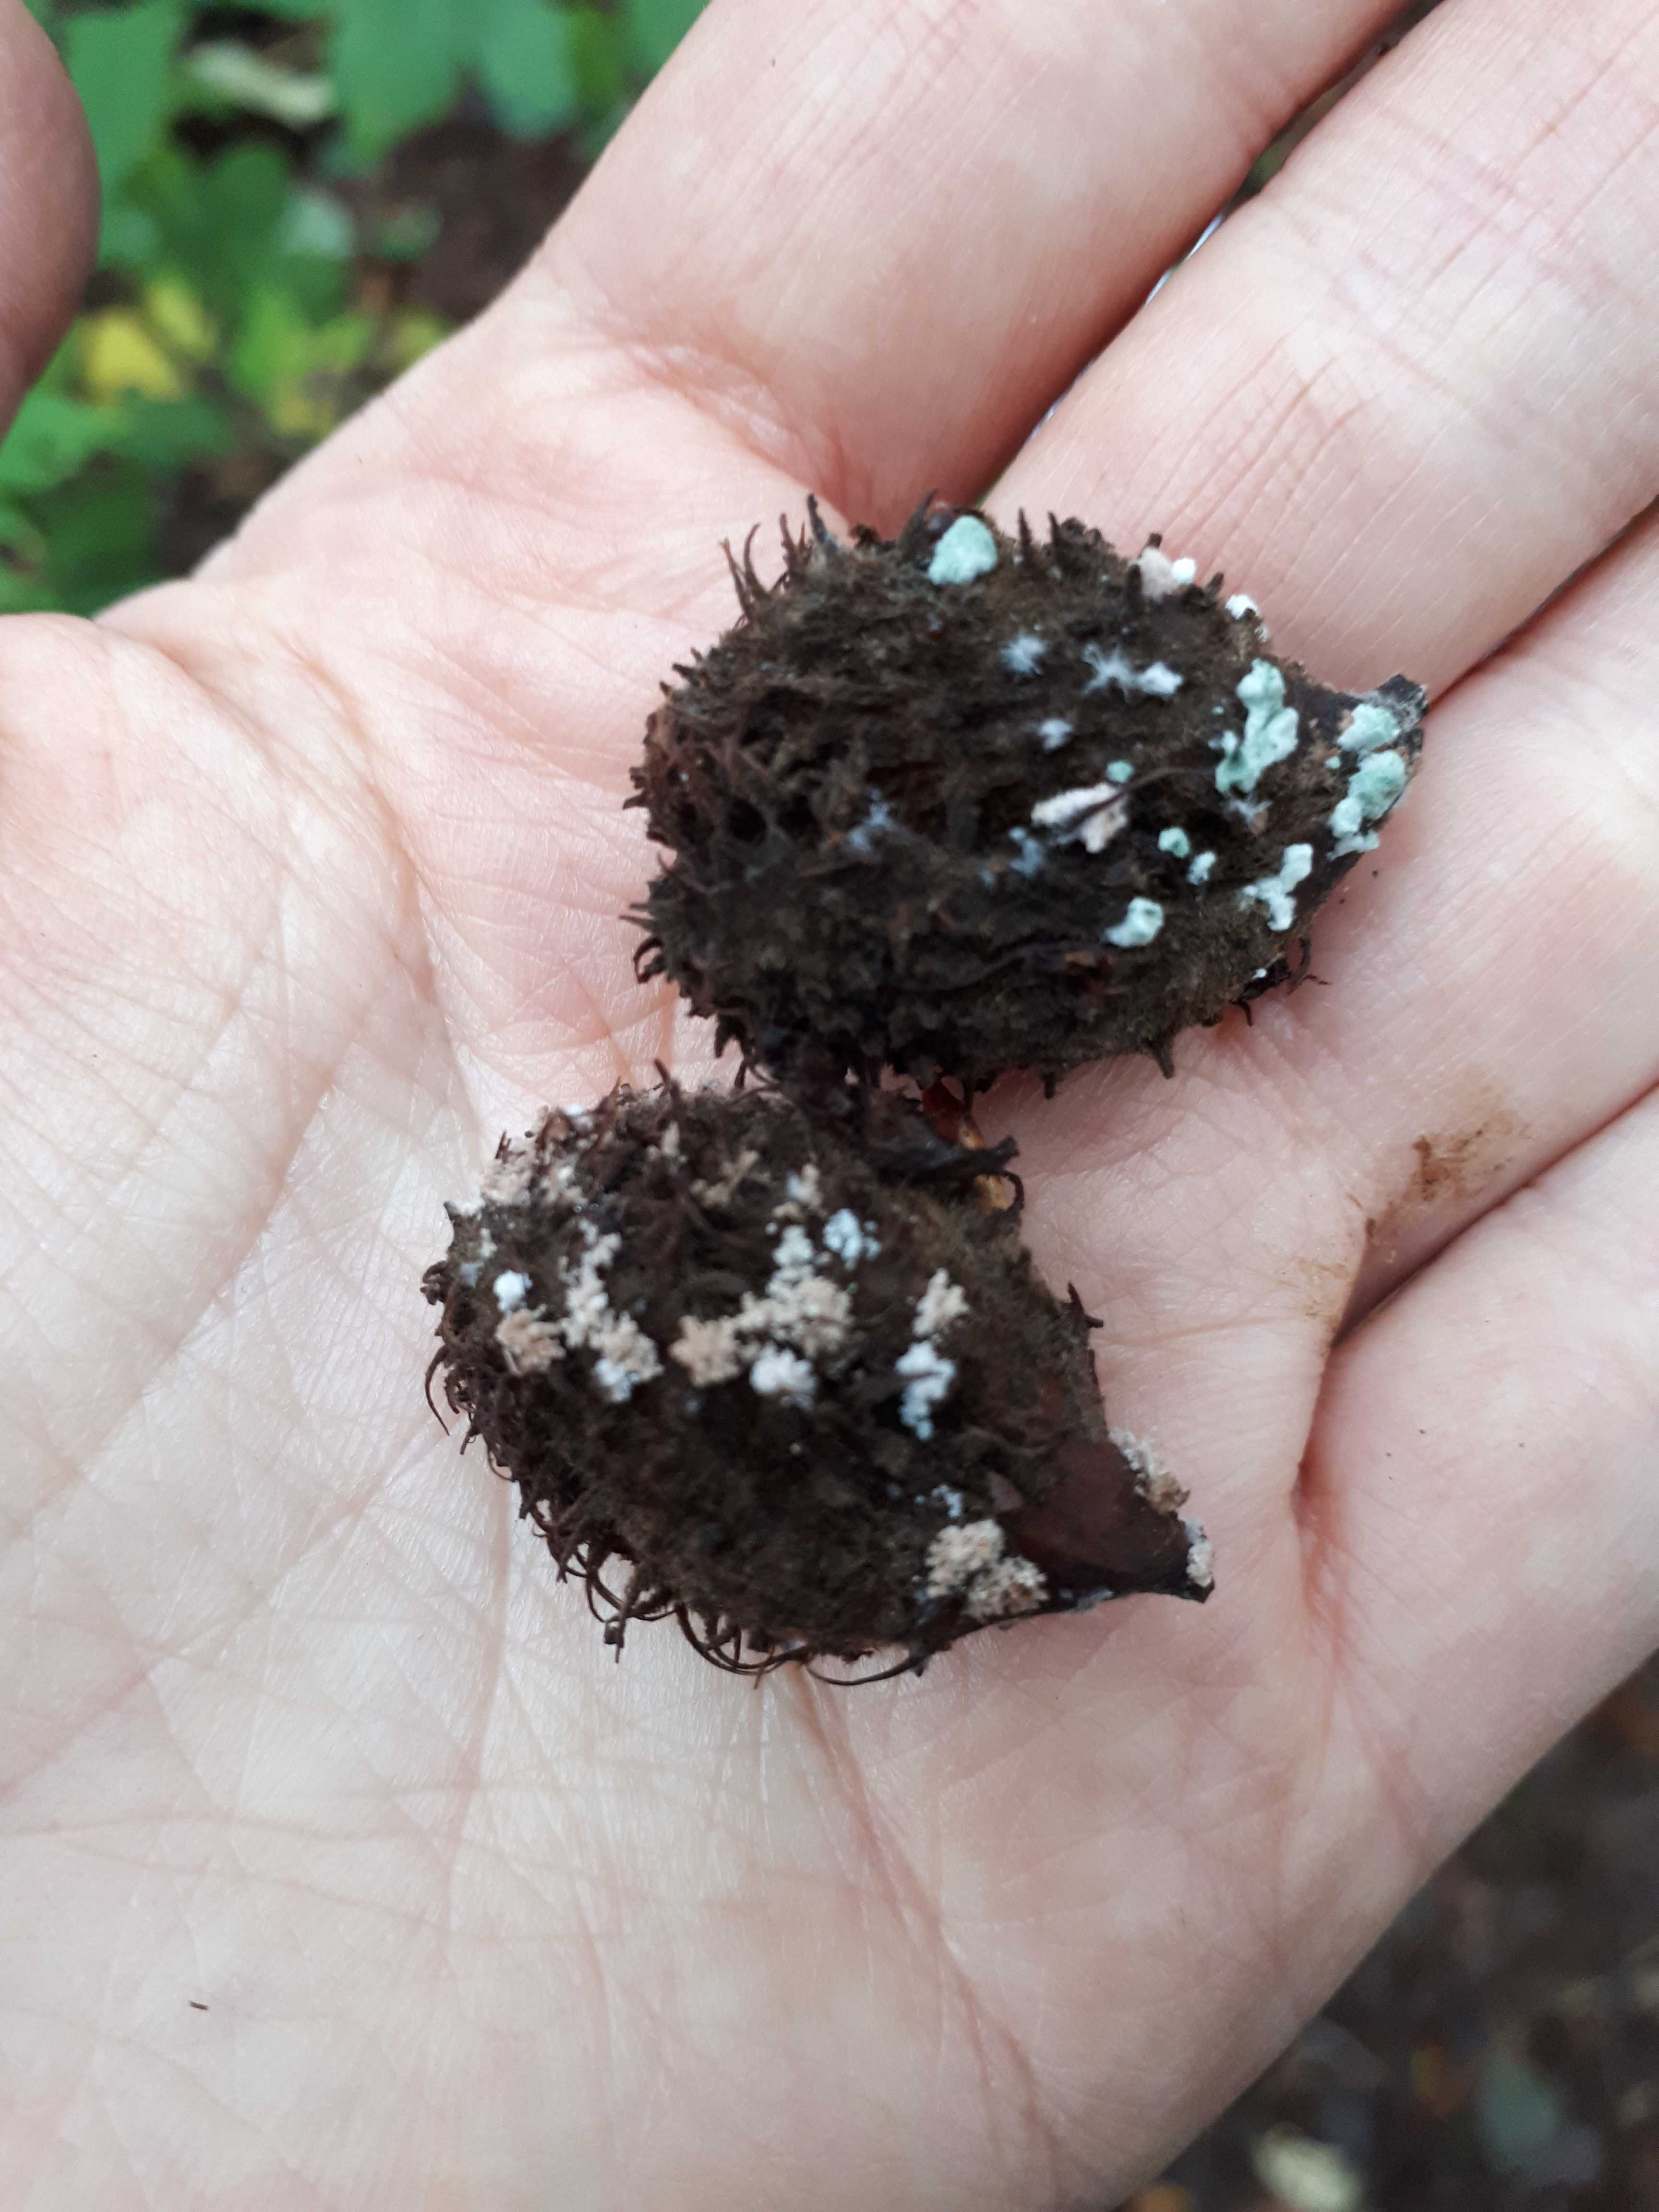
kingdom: Fungi
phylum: Ascomycota
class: Eurotiomycetes
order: Eurotiales
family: Aspergillaceae
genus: Penicillium
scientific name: Penicillium
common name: penselskimmel
